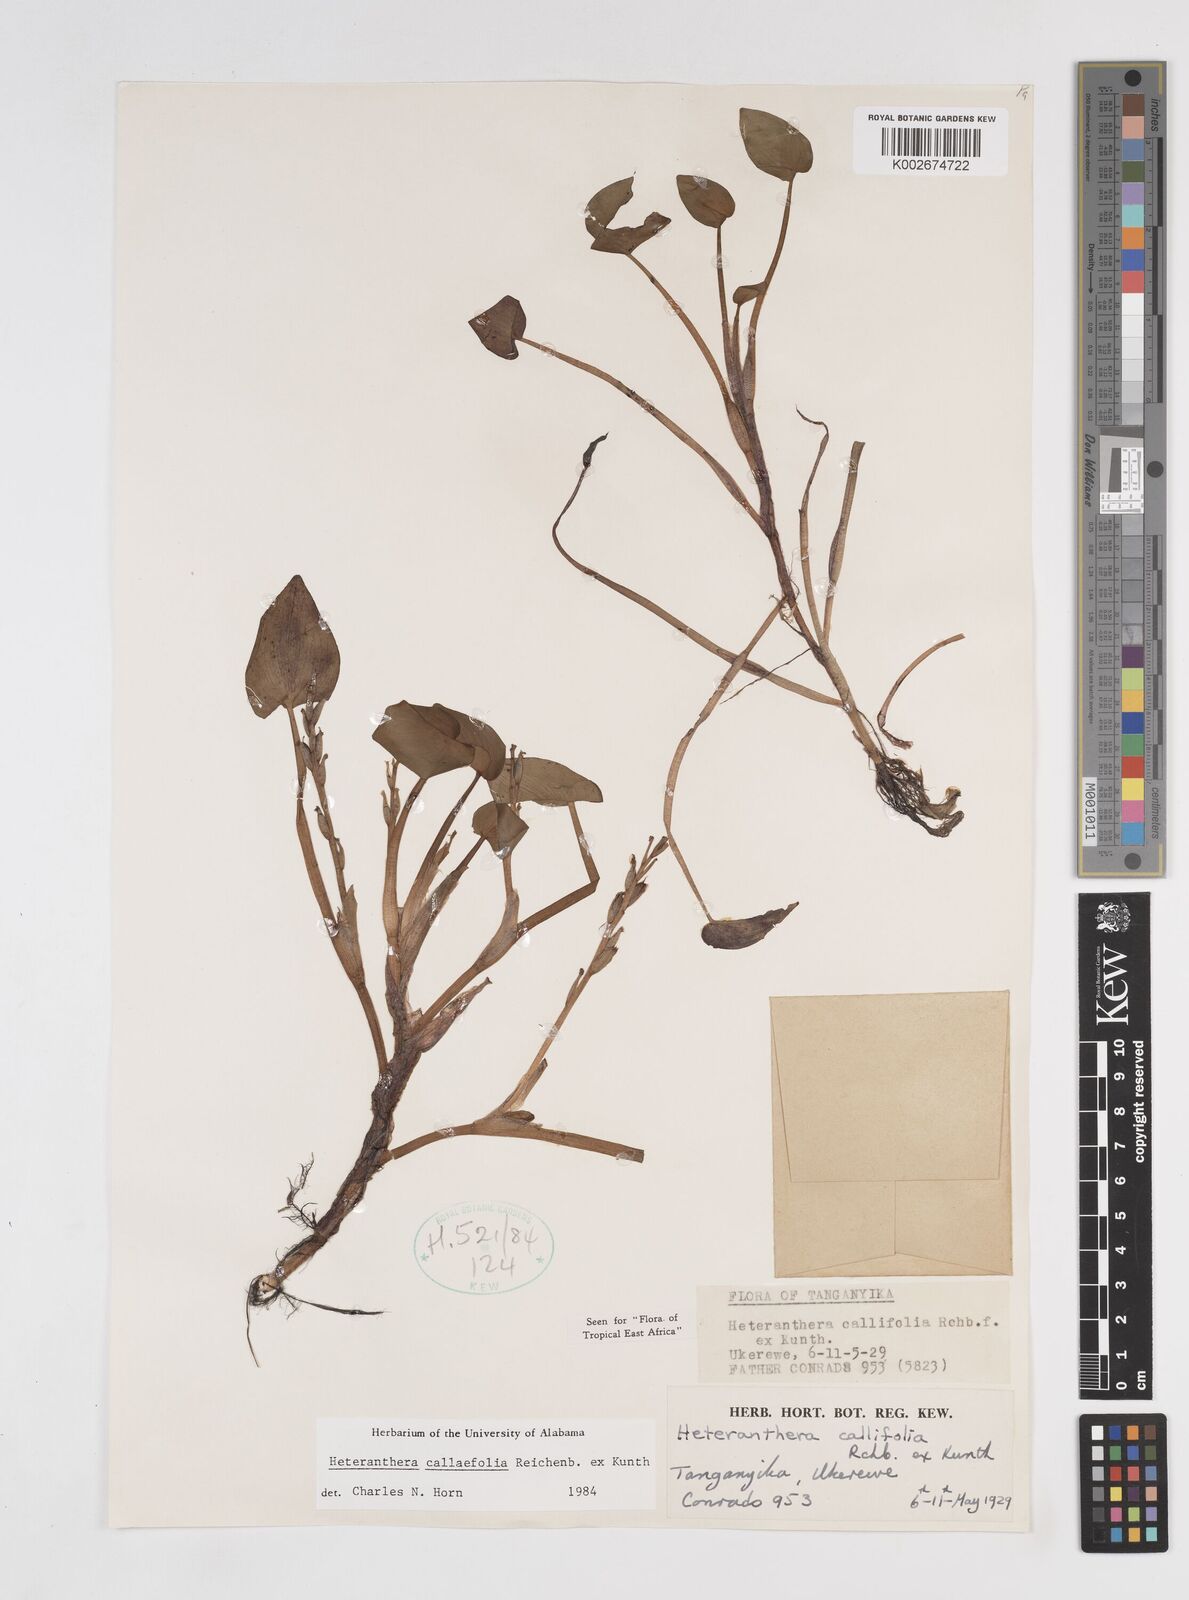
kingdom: Plantae
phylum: Tracheophyta
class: Liliopsida
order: Commelinales
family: Pontederiaceae
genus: Heteranthera
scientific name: Heteranthera callifolia
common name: Mud plantain
